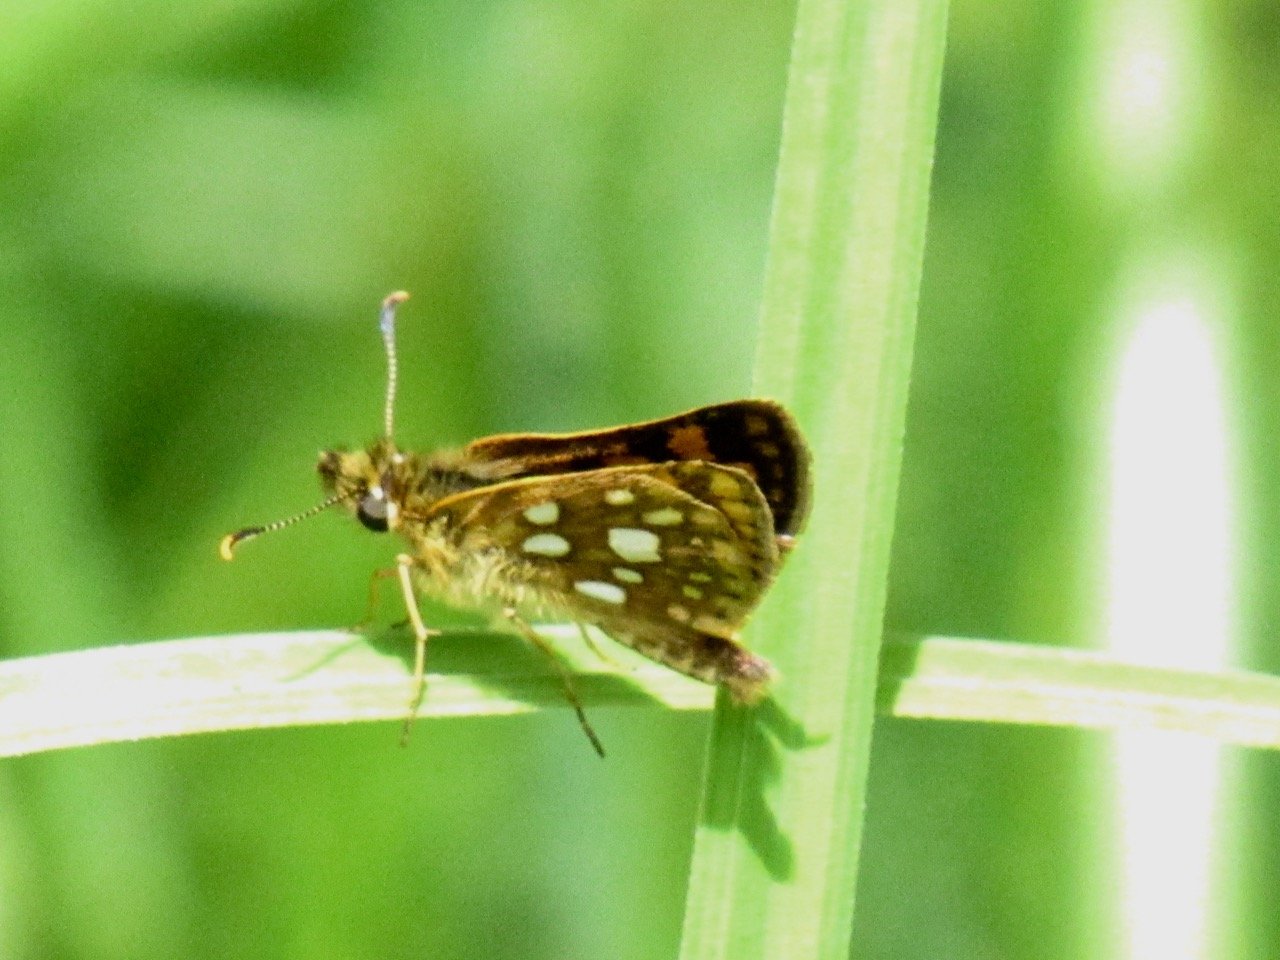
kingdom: Animalia
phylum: Arthropoda
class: Insecta
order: Lepidoptera
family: Hesperiidae
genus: Carterocephalus
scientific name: Carterocephalus palaemon
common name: Chequered Skipper
